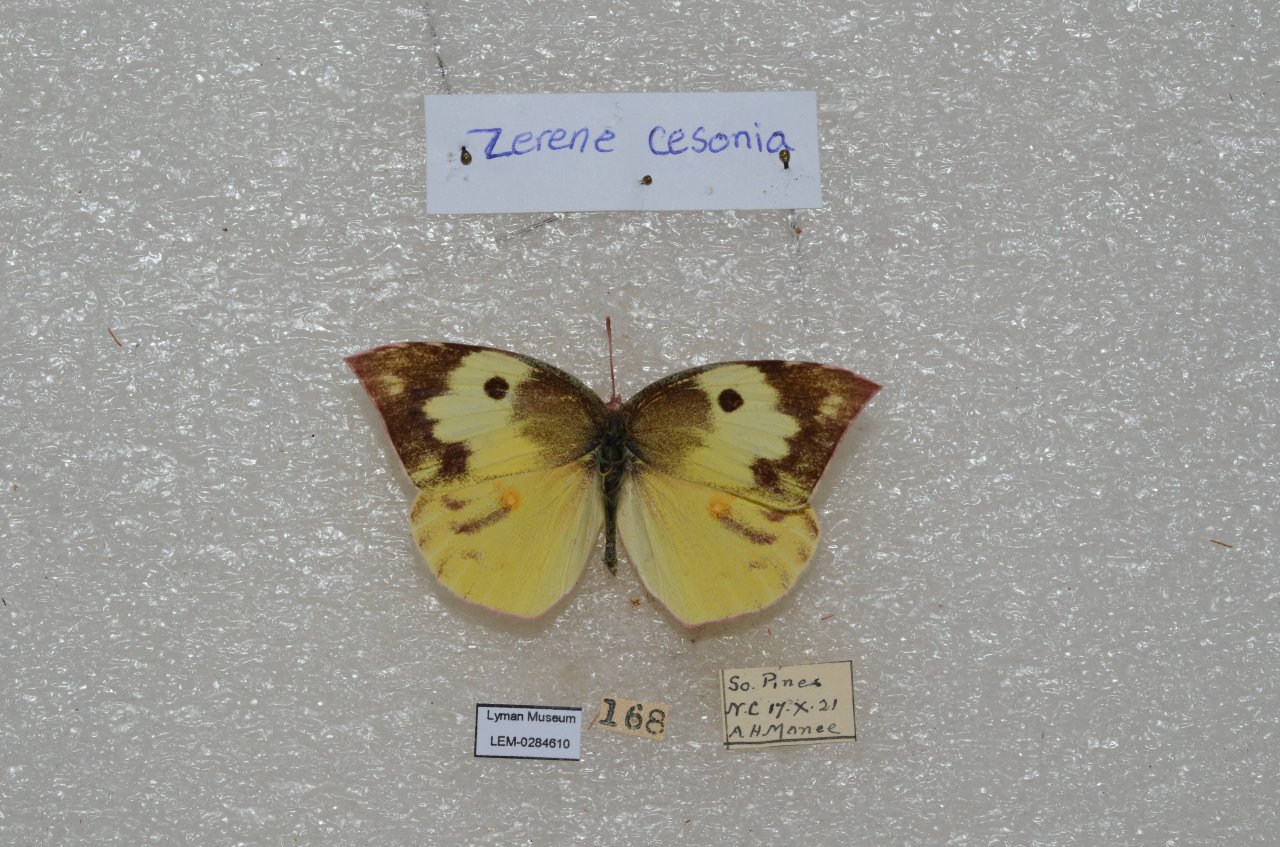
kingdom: Animalia
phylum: Arthropoda
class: Insecta
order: Lepidoptera
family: Pieridae
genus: Zerene
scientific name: Zerene cesonia
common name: Southern Dogface
